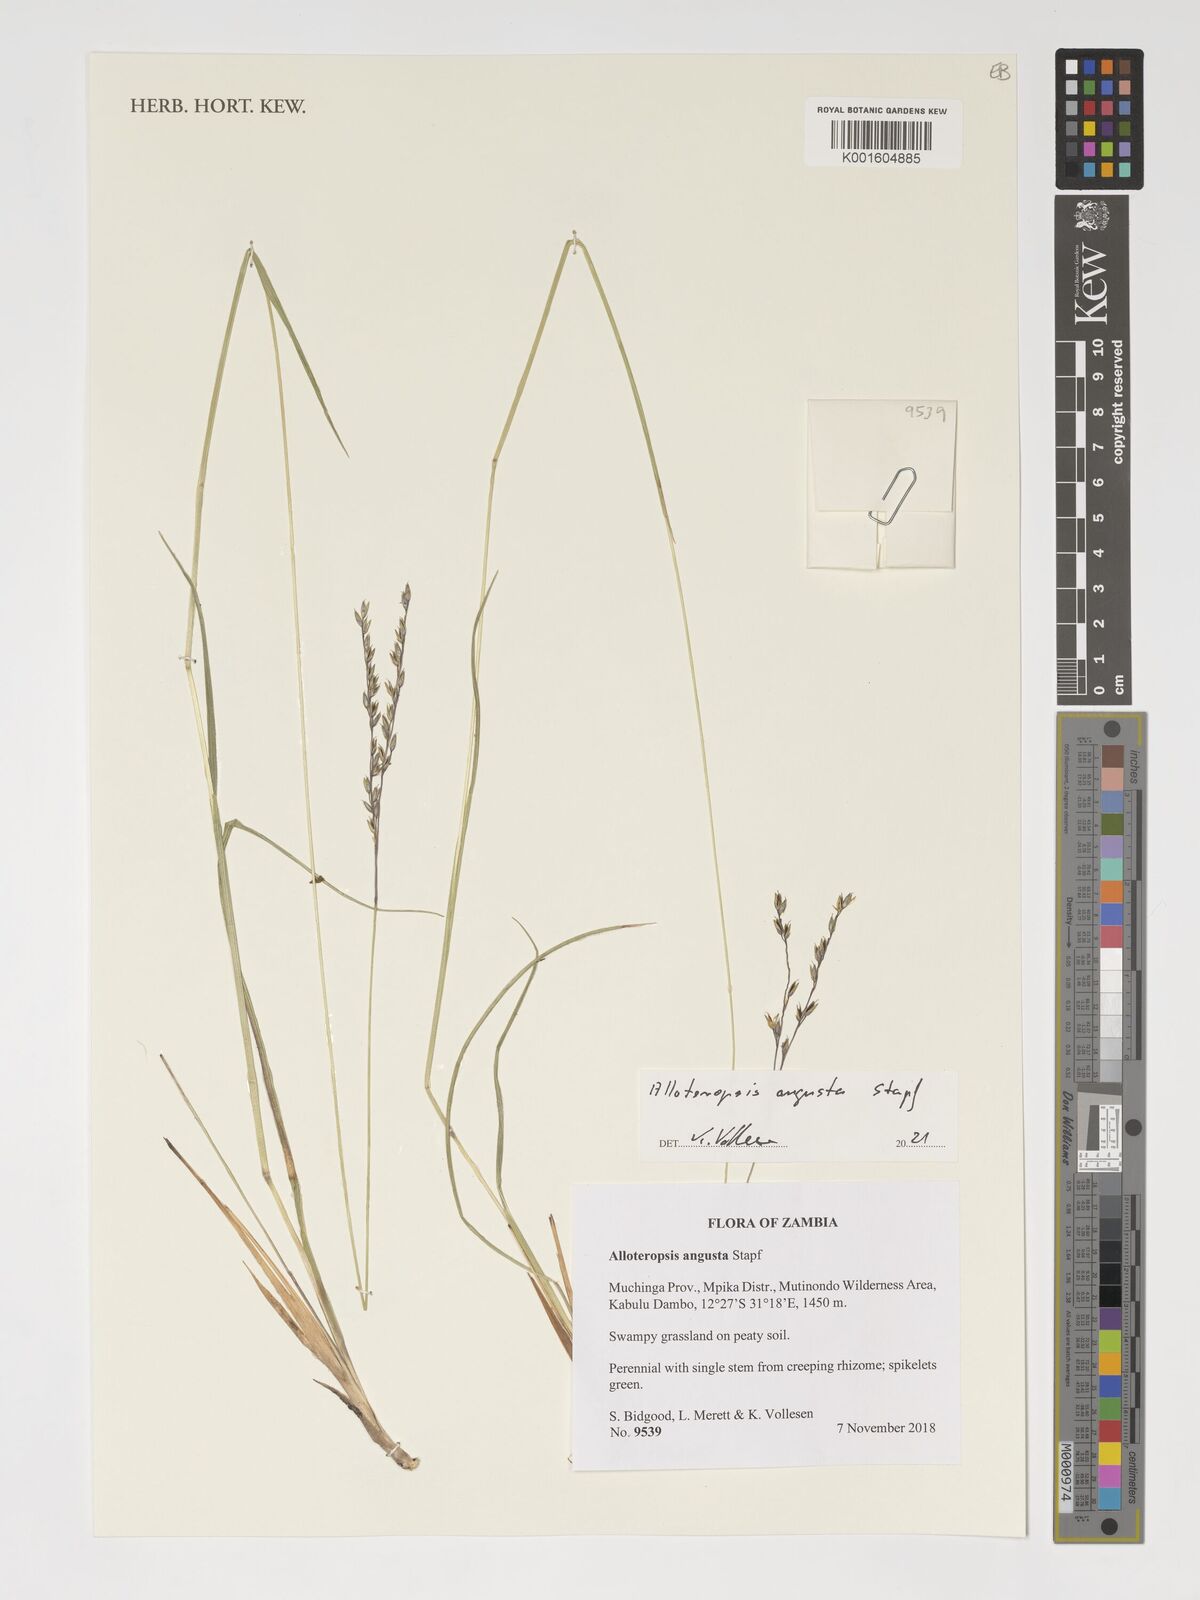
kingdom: Plantae
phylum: Tracheophyta
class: Liliopsida
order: Poales
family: Poaceae
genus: Alloteropsis
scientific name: Alloteropsis angusta
